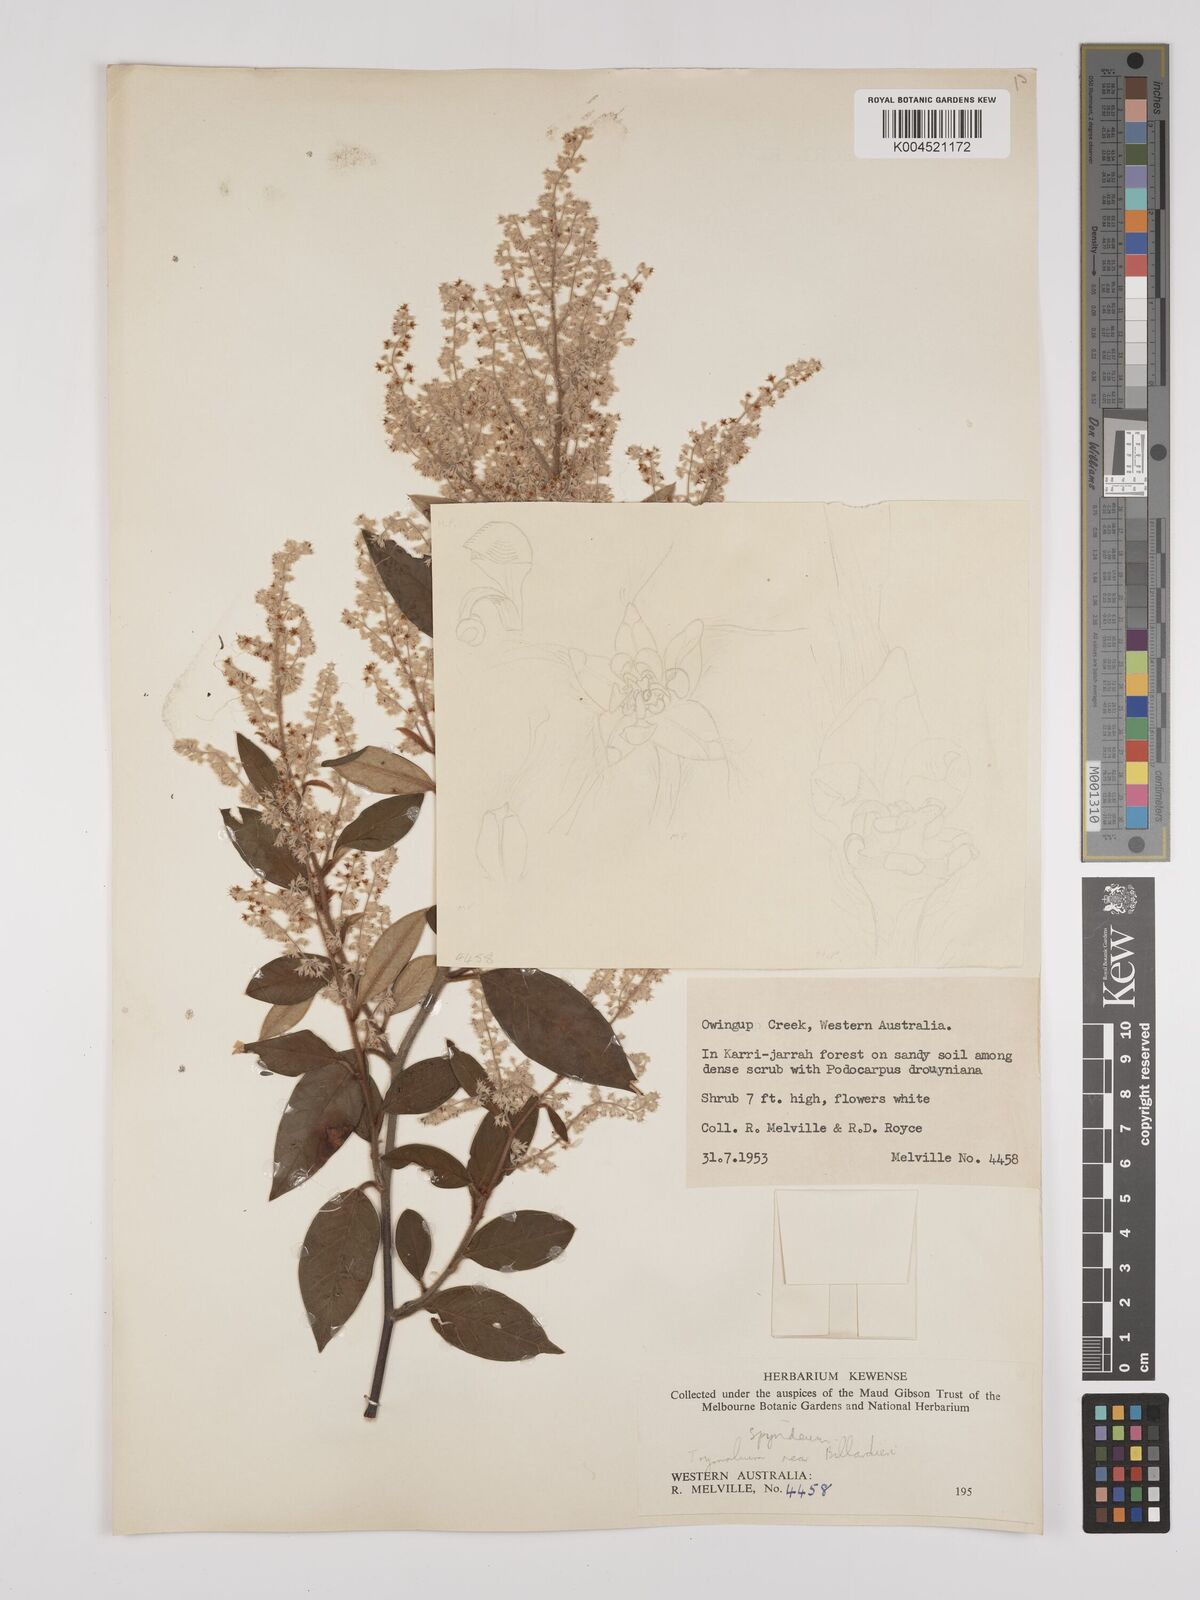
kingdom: Plantae
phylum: Tracheophyta
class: Magnoliopsida
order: Rosales
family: Rhamnaceae
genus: Trymalium
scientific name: Trymalium wayi
